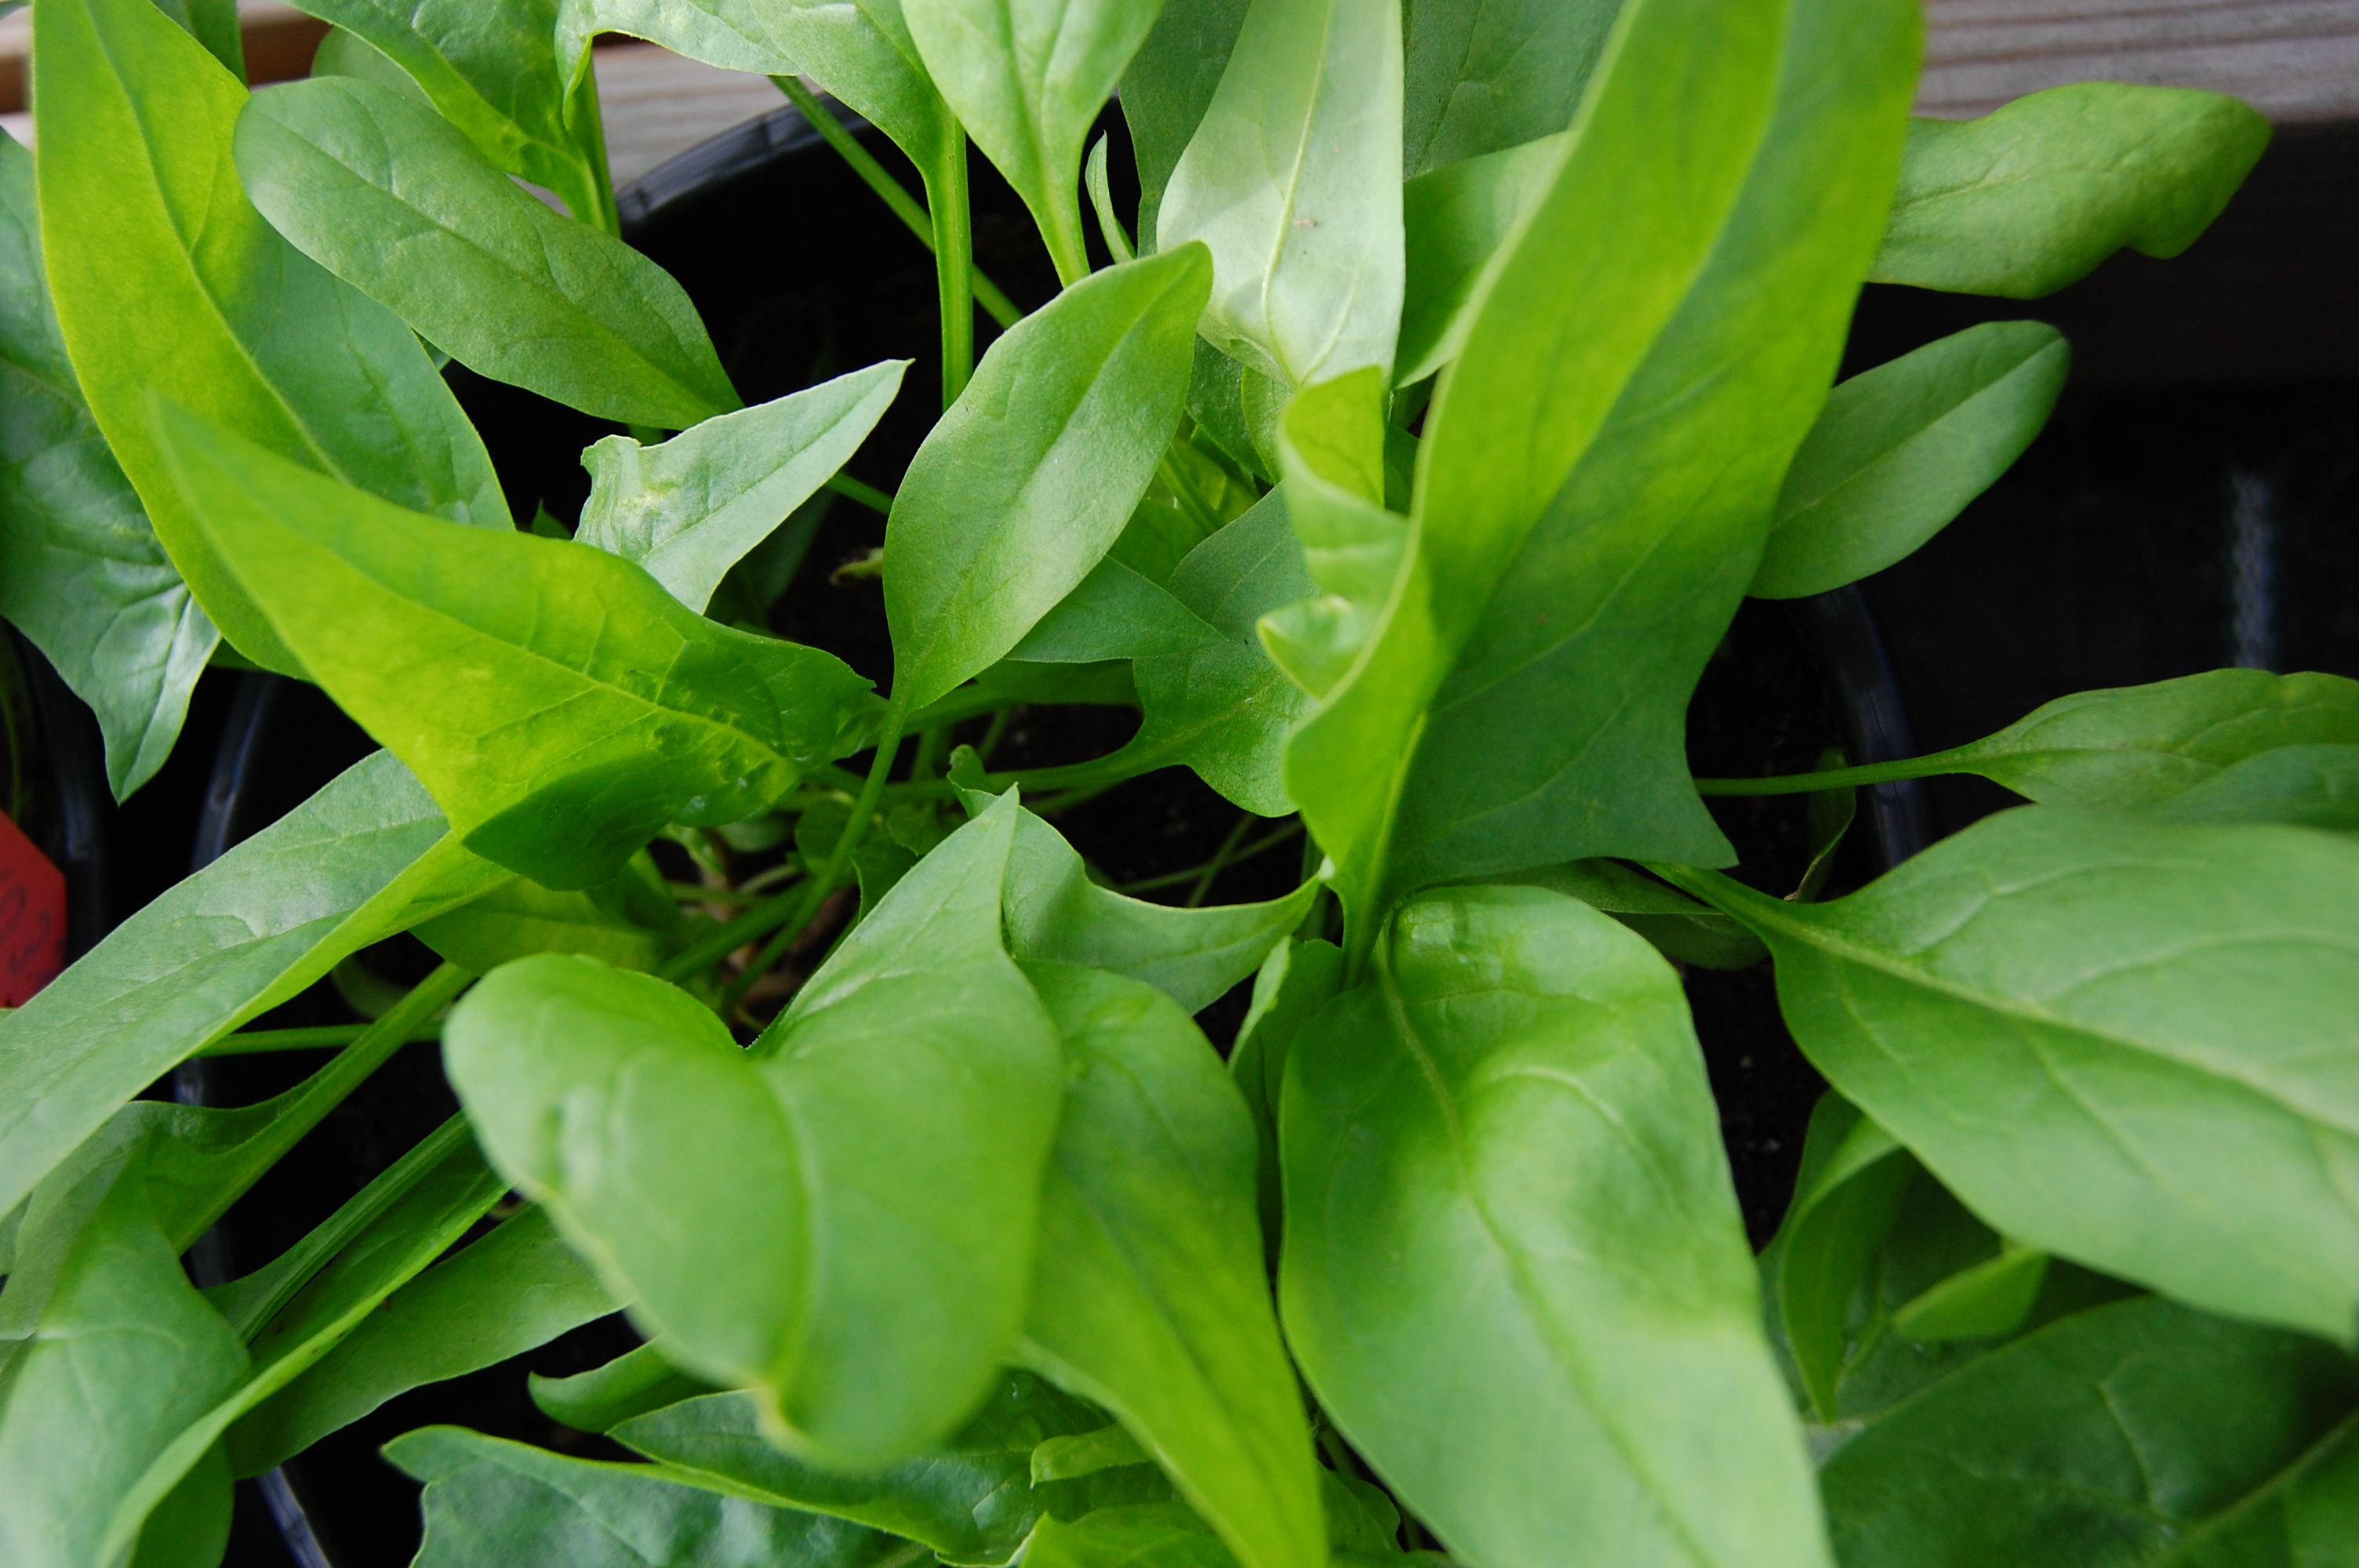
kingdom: Plantae
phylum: Tracheophyta
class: Magnoliopsida
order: Caryophyllales
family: Amaranthaceae
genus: Spinacia
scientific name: Spinacia oleracea
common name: Spinach
